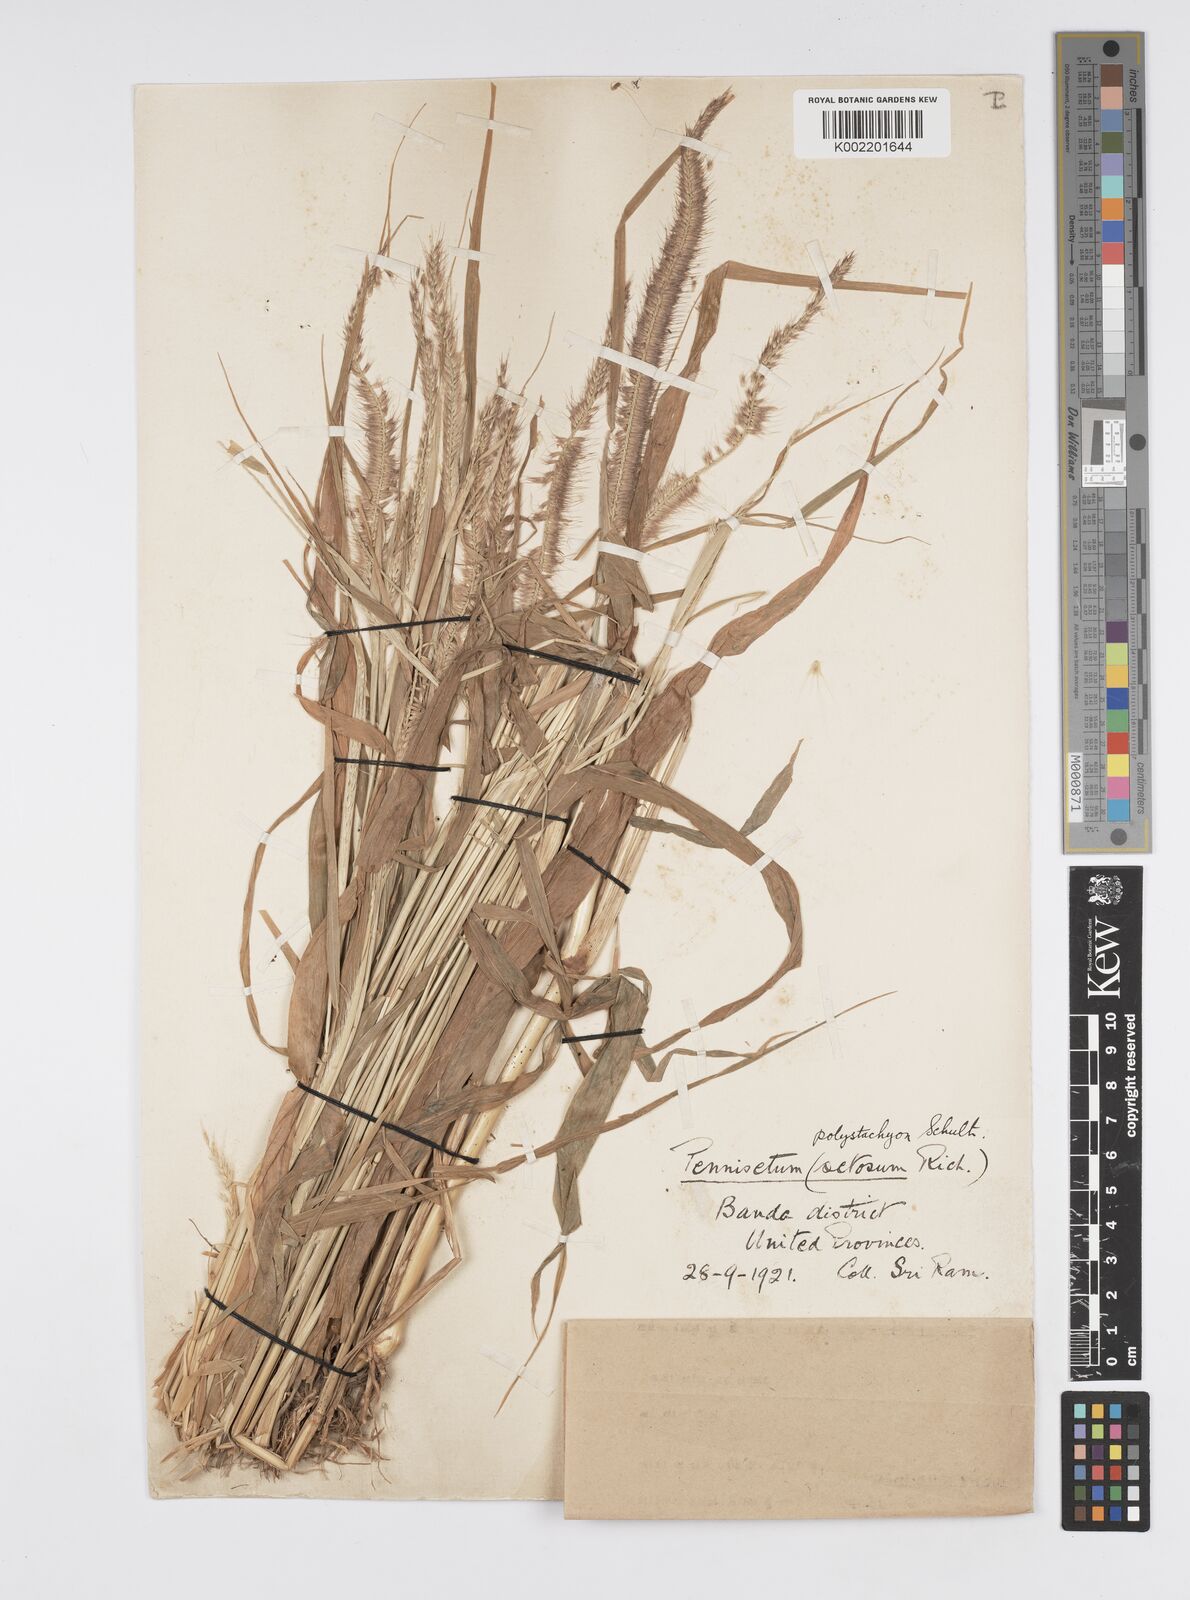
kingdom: Plantae
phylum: Tracheophyta
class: Liliopsida
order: Poales
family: Poaceae
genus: Setaria
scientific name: Setaria parviflora
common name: Knotroot bristle-grass
